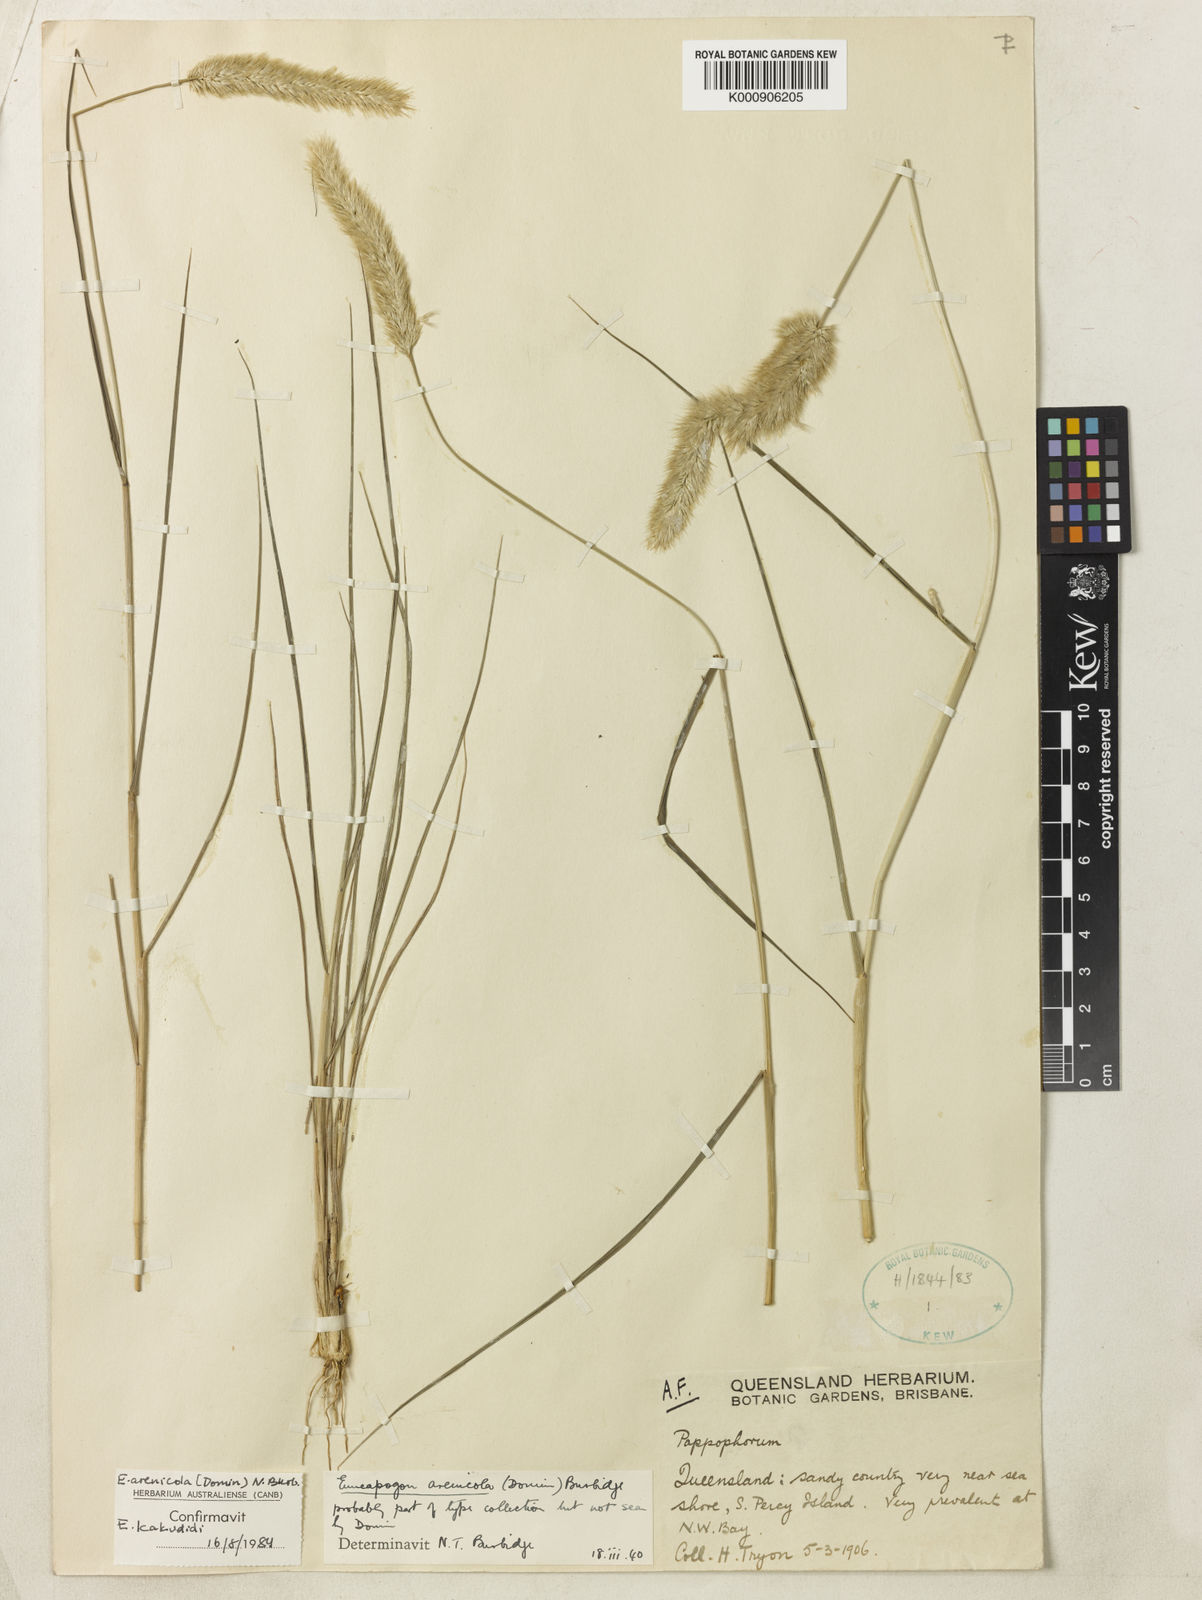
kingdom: Plantae
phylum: Tracheophyta
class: Liliopsida
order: Poales
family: Poaceae
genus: Enneapogon
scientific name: Enneapogon nigricans
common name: Pappus grass
